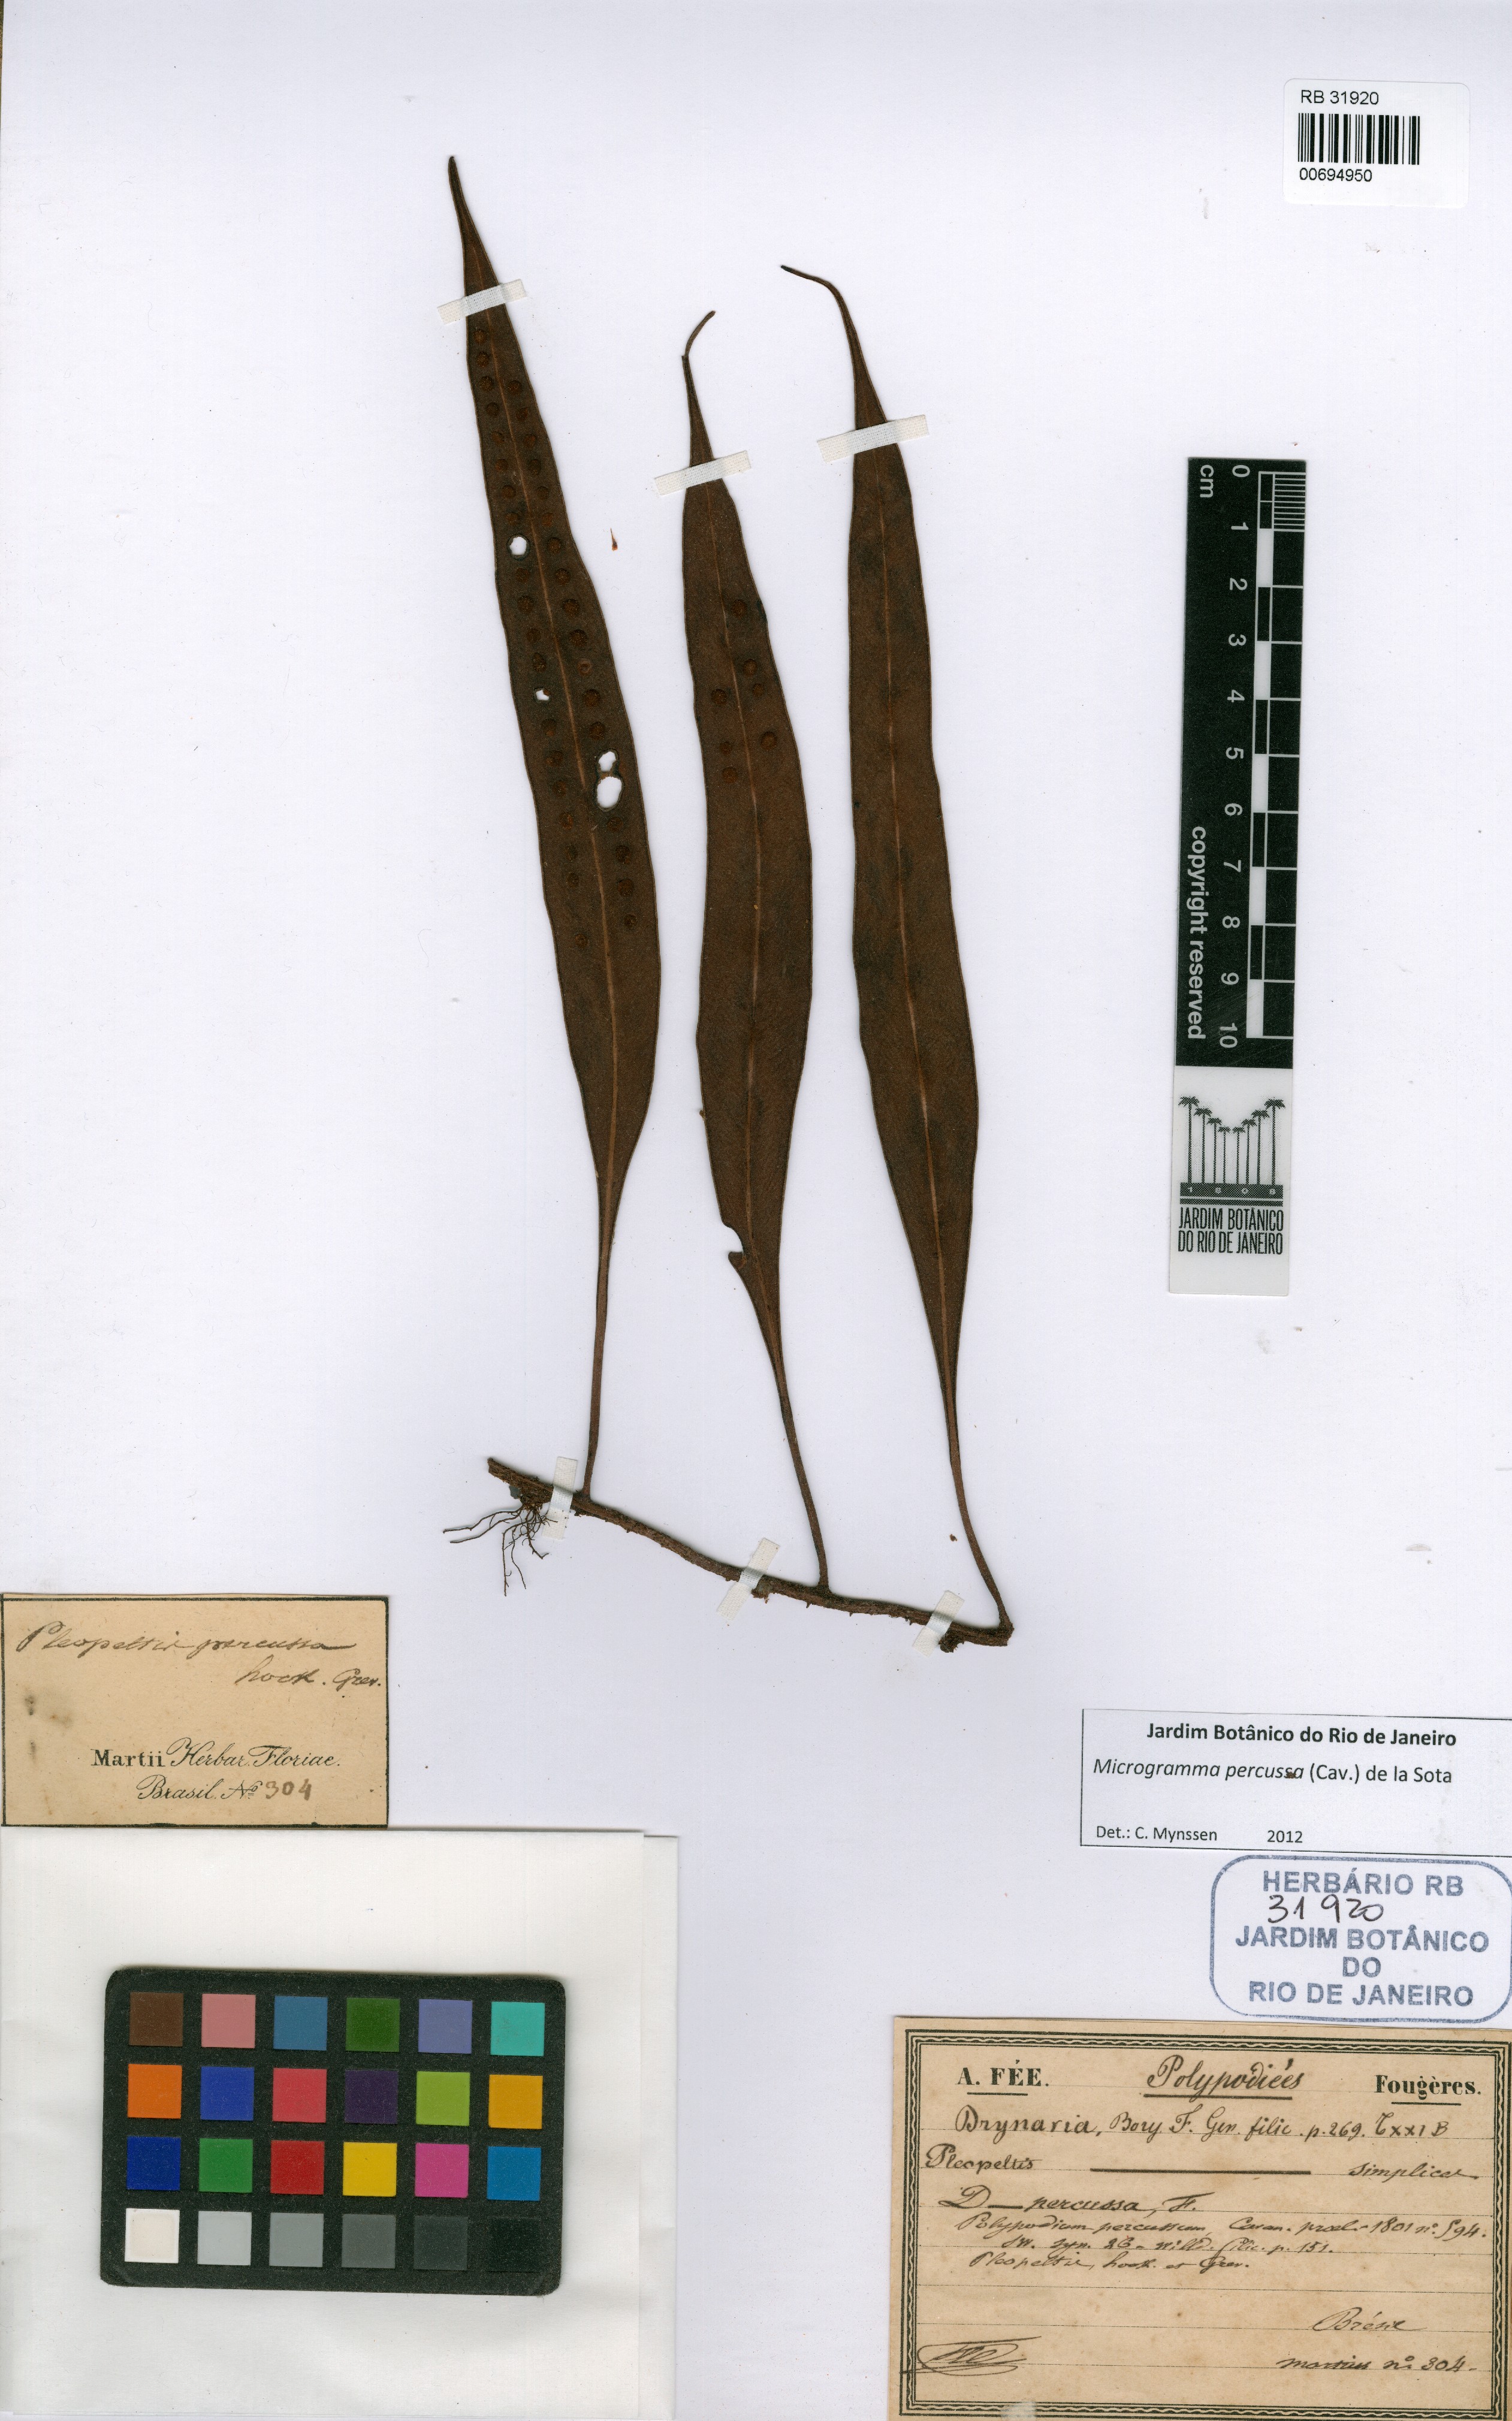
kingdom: Plantae
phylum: Tracheophyta
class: Polypodiopsida
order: Polypodiales
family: Polypodiaceae
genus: Microgramma
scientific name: Microgramma percussa
